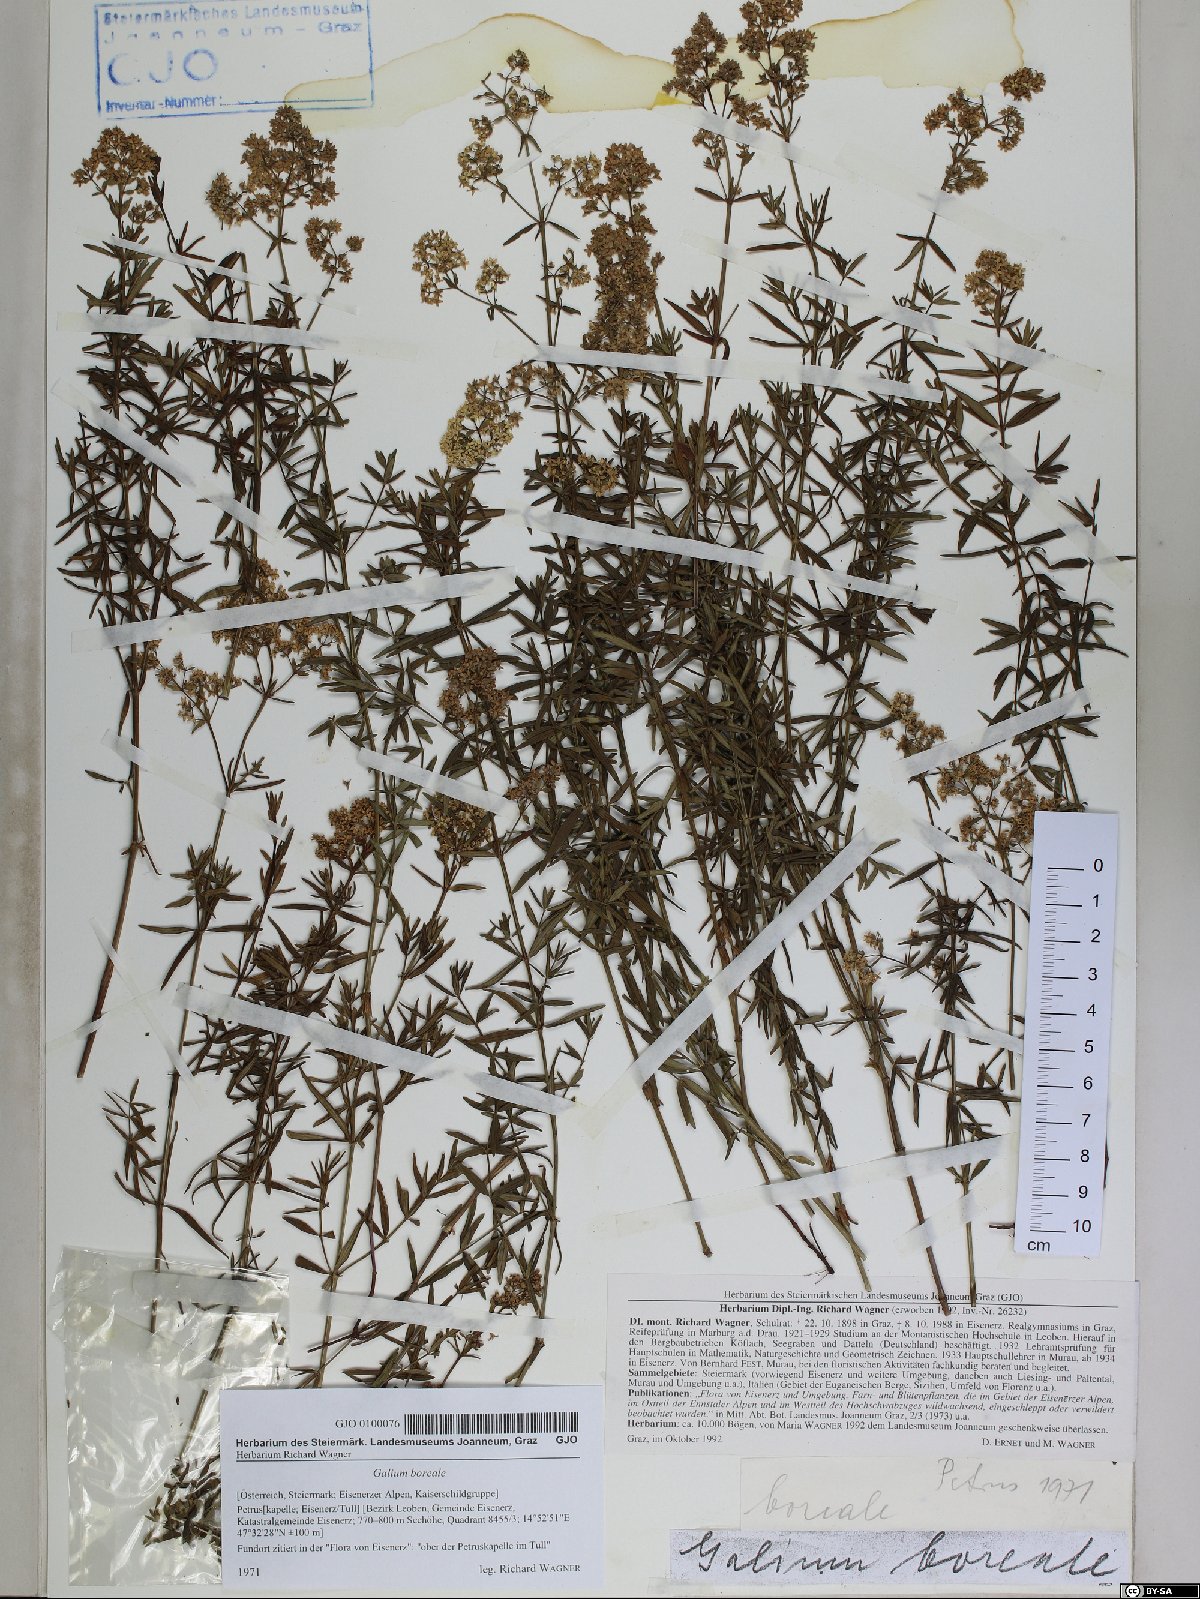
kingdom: Plantae
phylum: Tracheophyta
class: Magnoliopsida
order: Gentianales
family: Rubiaceae
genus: Galium
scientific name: Galium boreale
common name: Northern bedstraw
